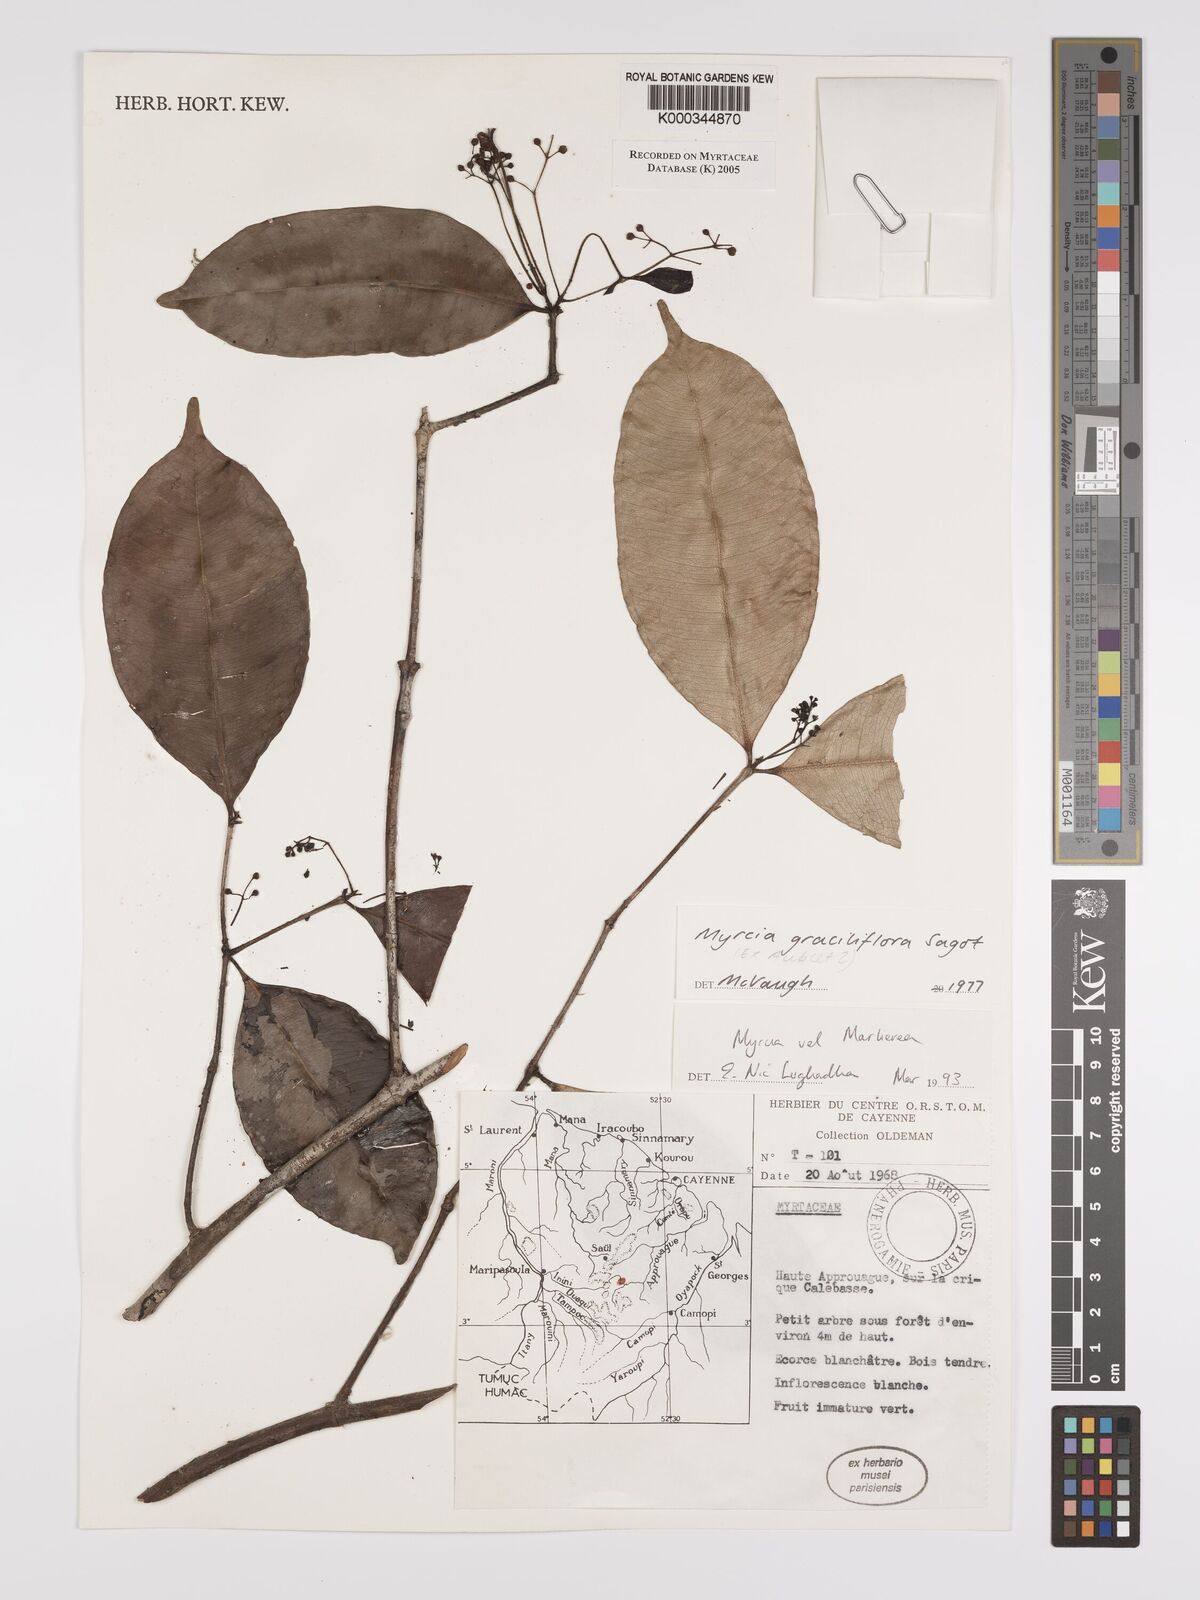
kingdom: Plantae
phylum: Tracheophyta
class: Magnoliopsida
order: Myrtales
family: Myrtaceae
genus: Myrcia
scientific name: Myrcia graciliflora
